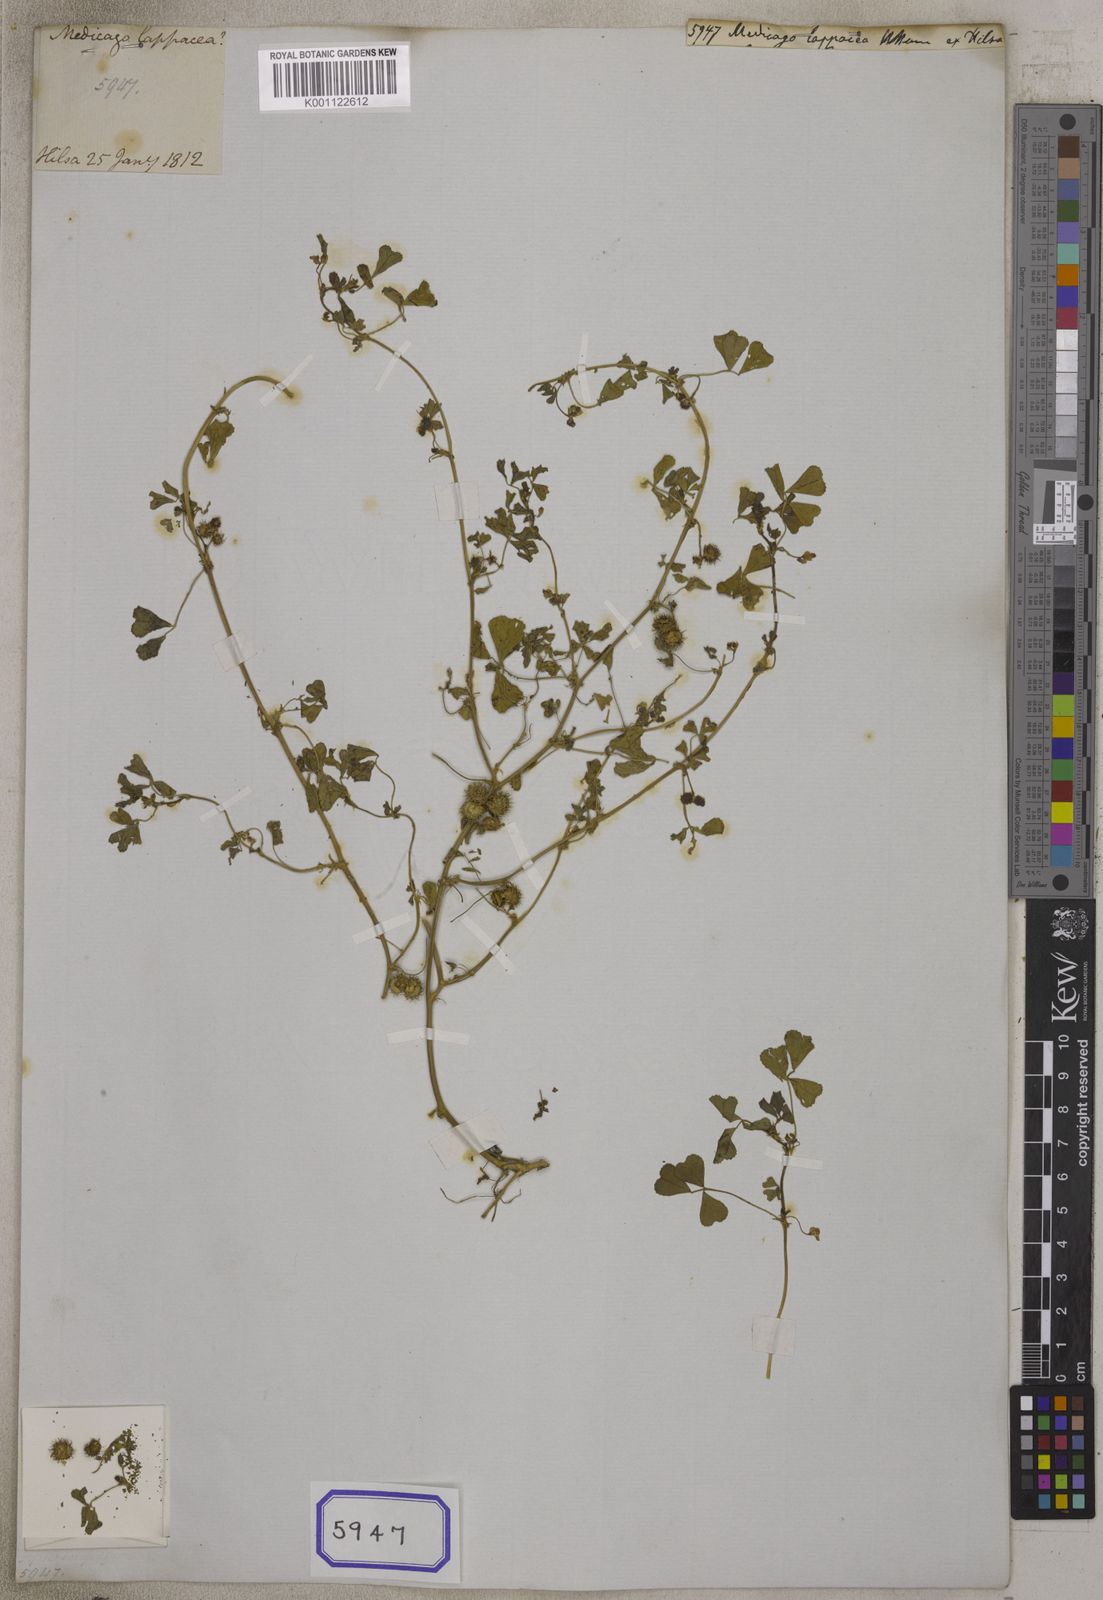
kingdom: Plantae
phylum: Tracheophyta
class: Magnoliopsida
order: Fabales
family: Fabaceae
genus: Medicago
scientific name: Medicago polymorpha
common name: Burclover
